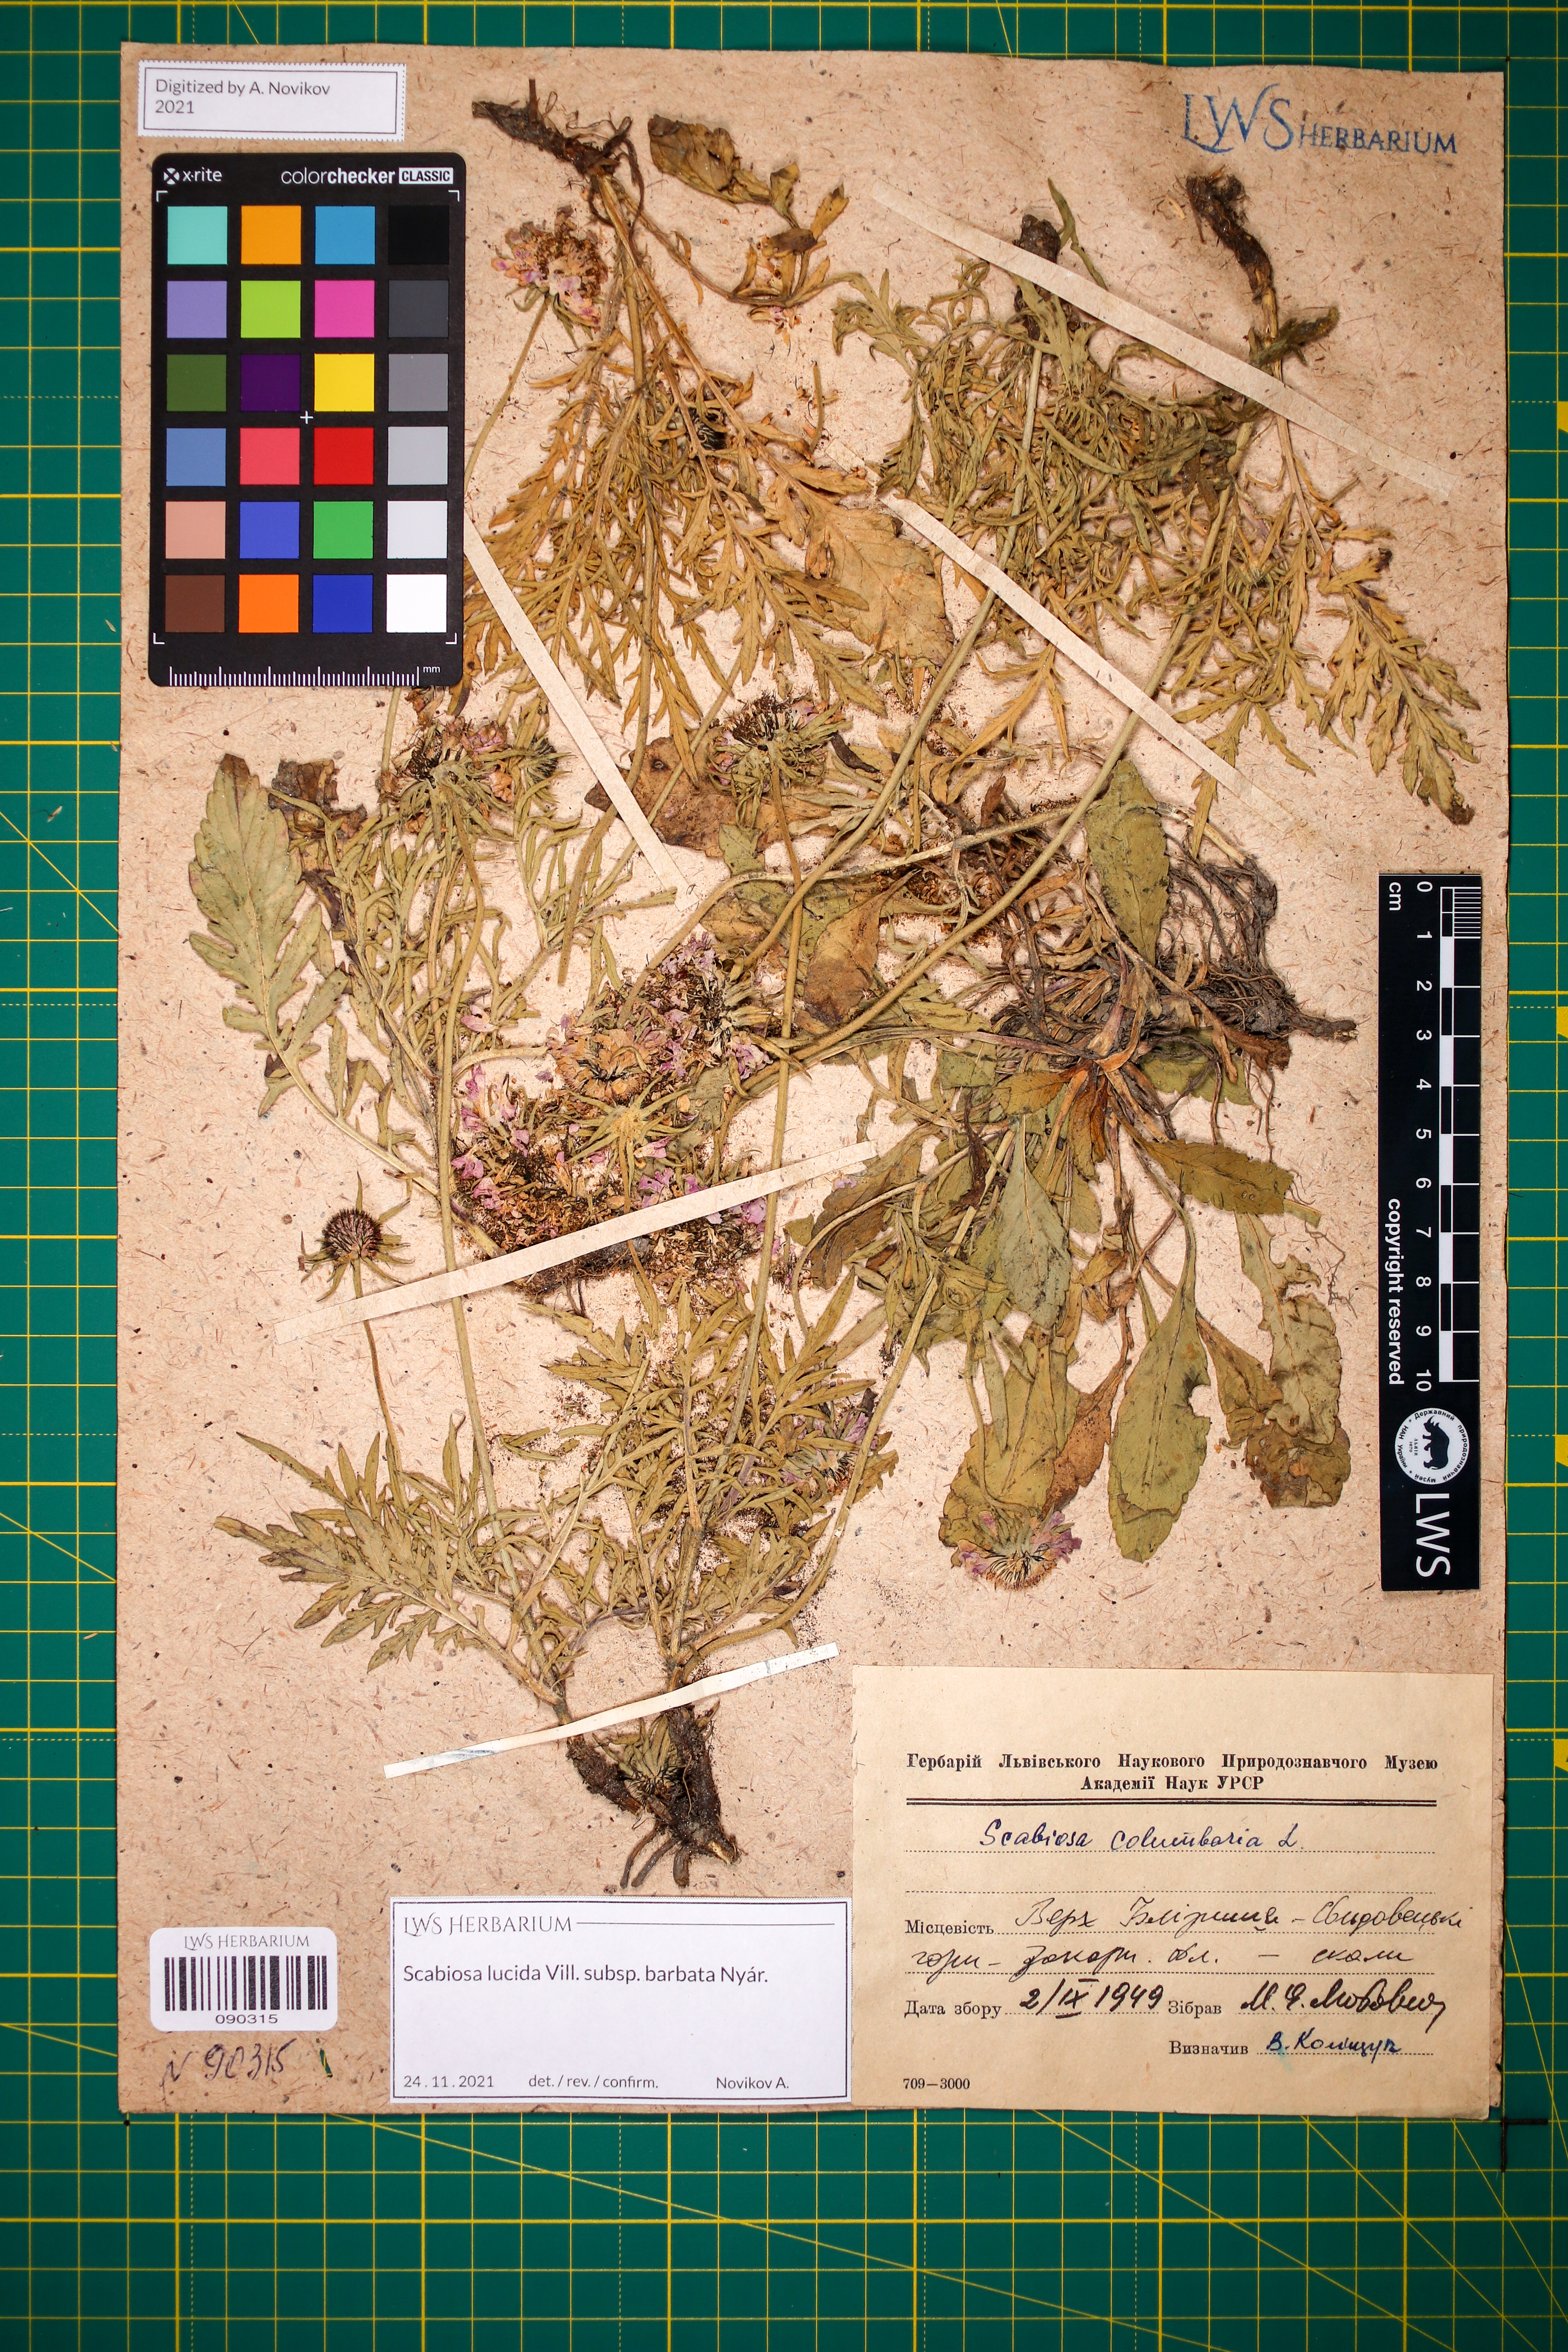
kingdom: Plantae
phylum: Tracheophyta
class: Magnoliopsida
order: Dipsacales
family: Caprifoliaceae
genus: Scabiosa
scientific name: Scabiosa lucida
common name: Shining scabious
